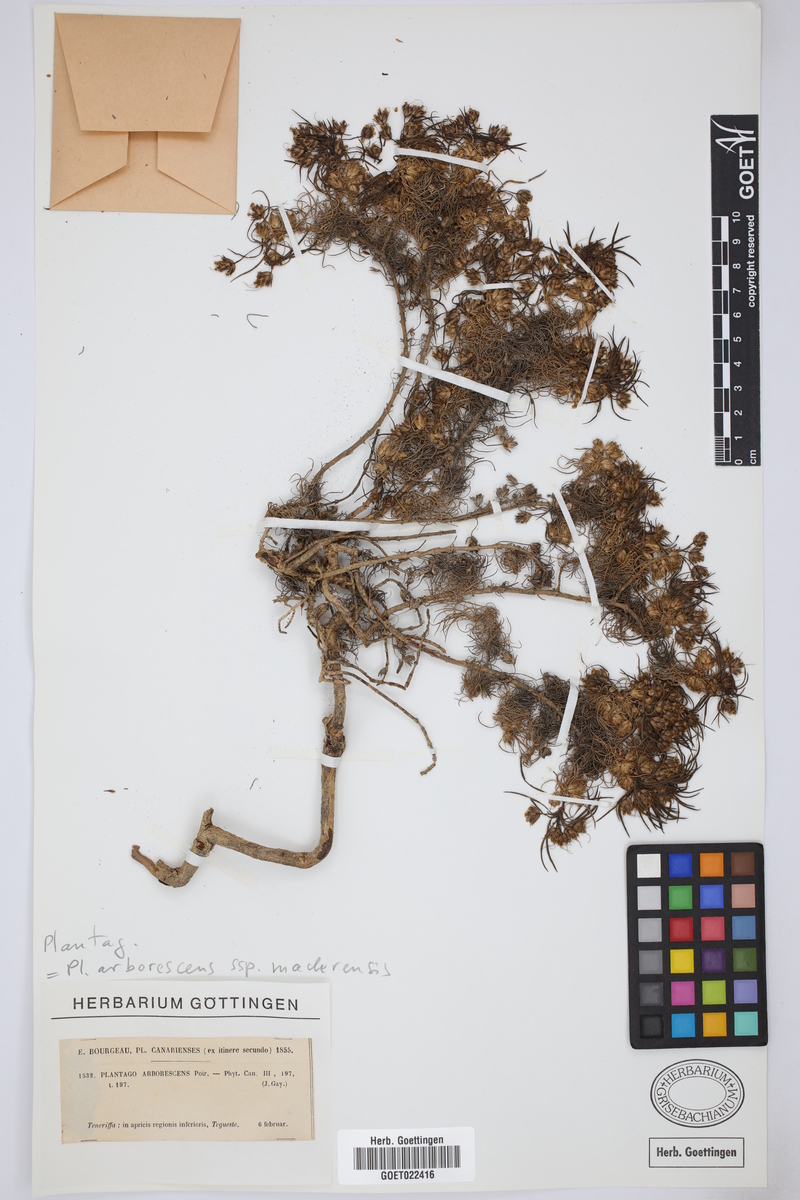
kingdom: Plantae
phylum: Tracheophyta
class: Magnoliopsida
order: Lamiales
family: Plantaginaceae
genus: Plantago
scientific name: Plantago arborescens
